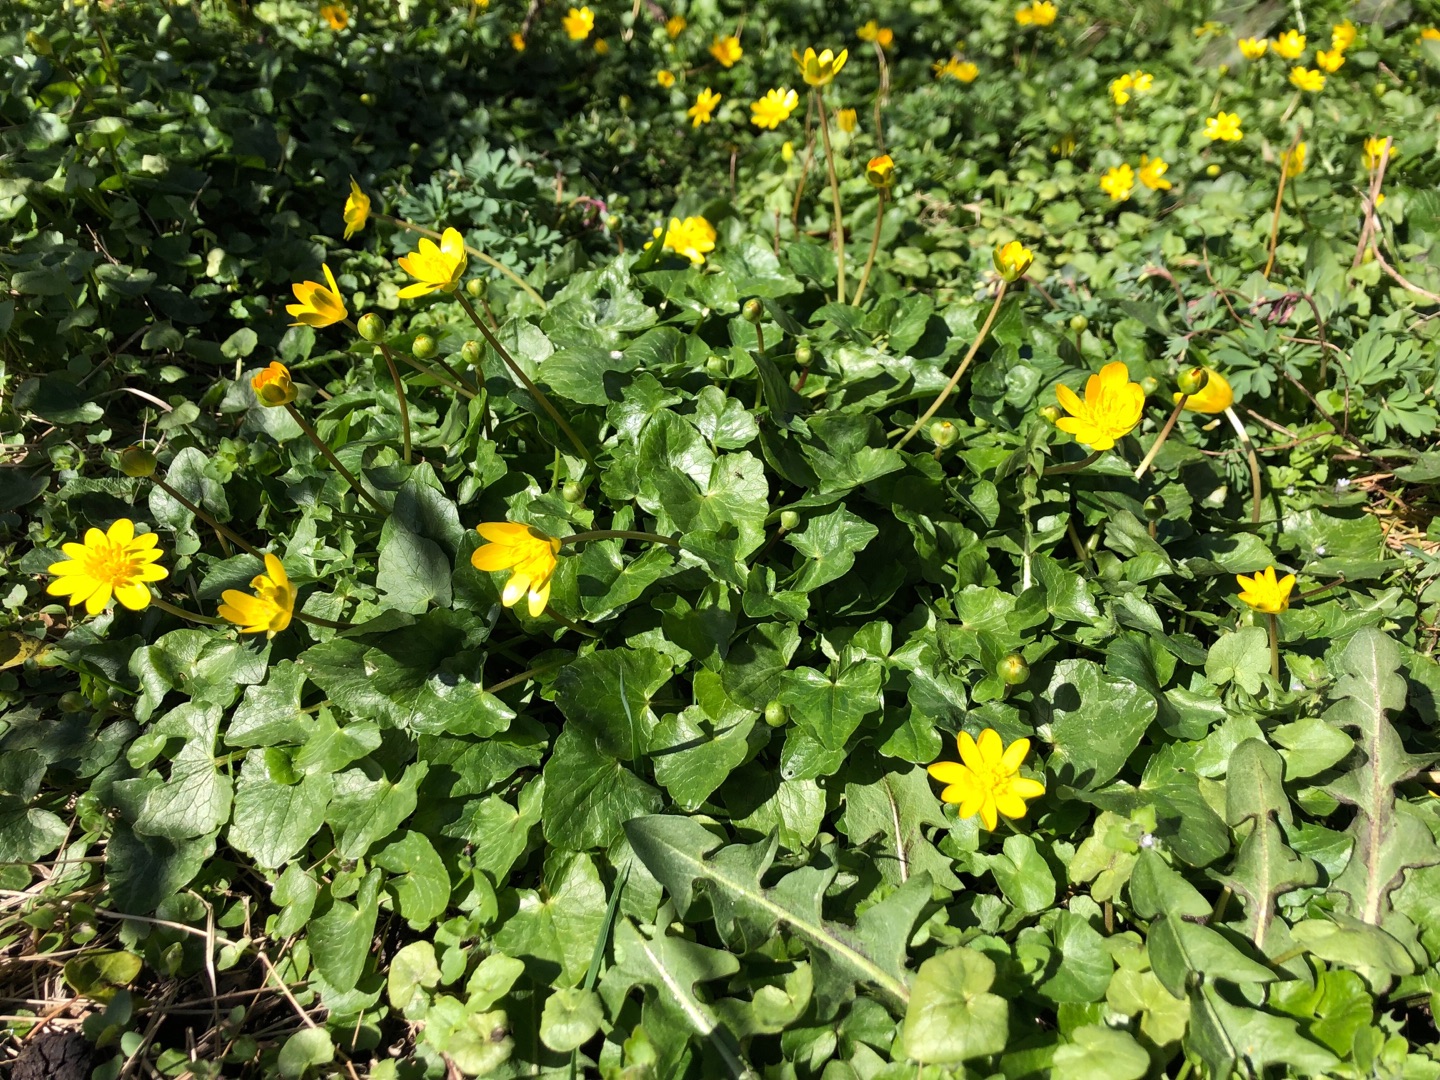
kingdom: Plantae
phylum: Tracheophyta
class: Magnoliopsida
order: Ranunculales
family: Ranunculaceae
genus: Ficaria
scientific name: Ficaria verna
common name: Vorterod
